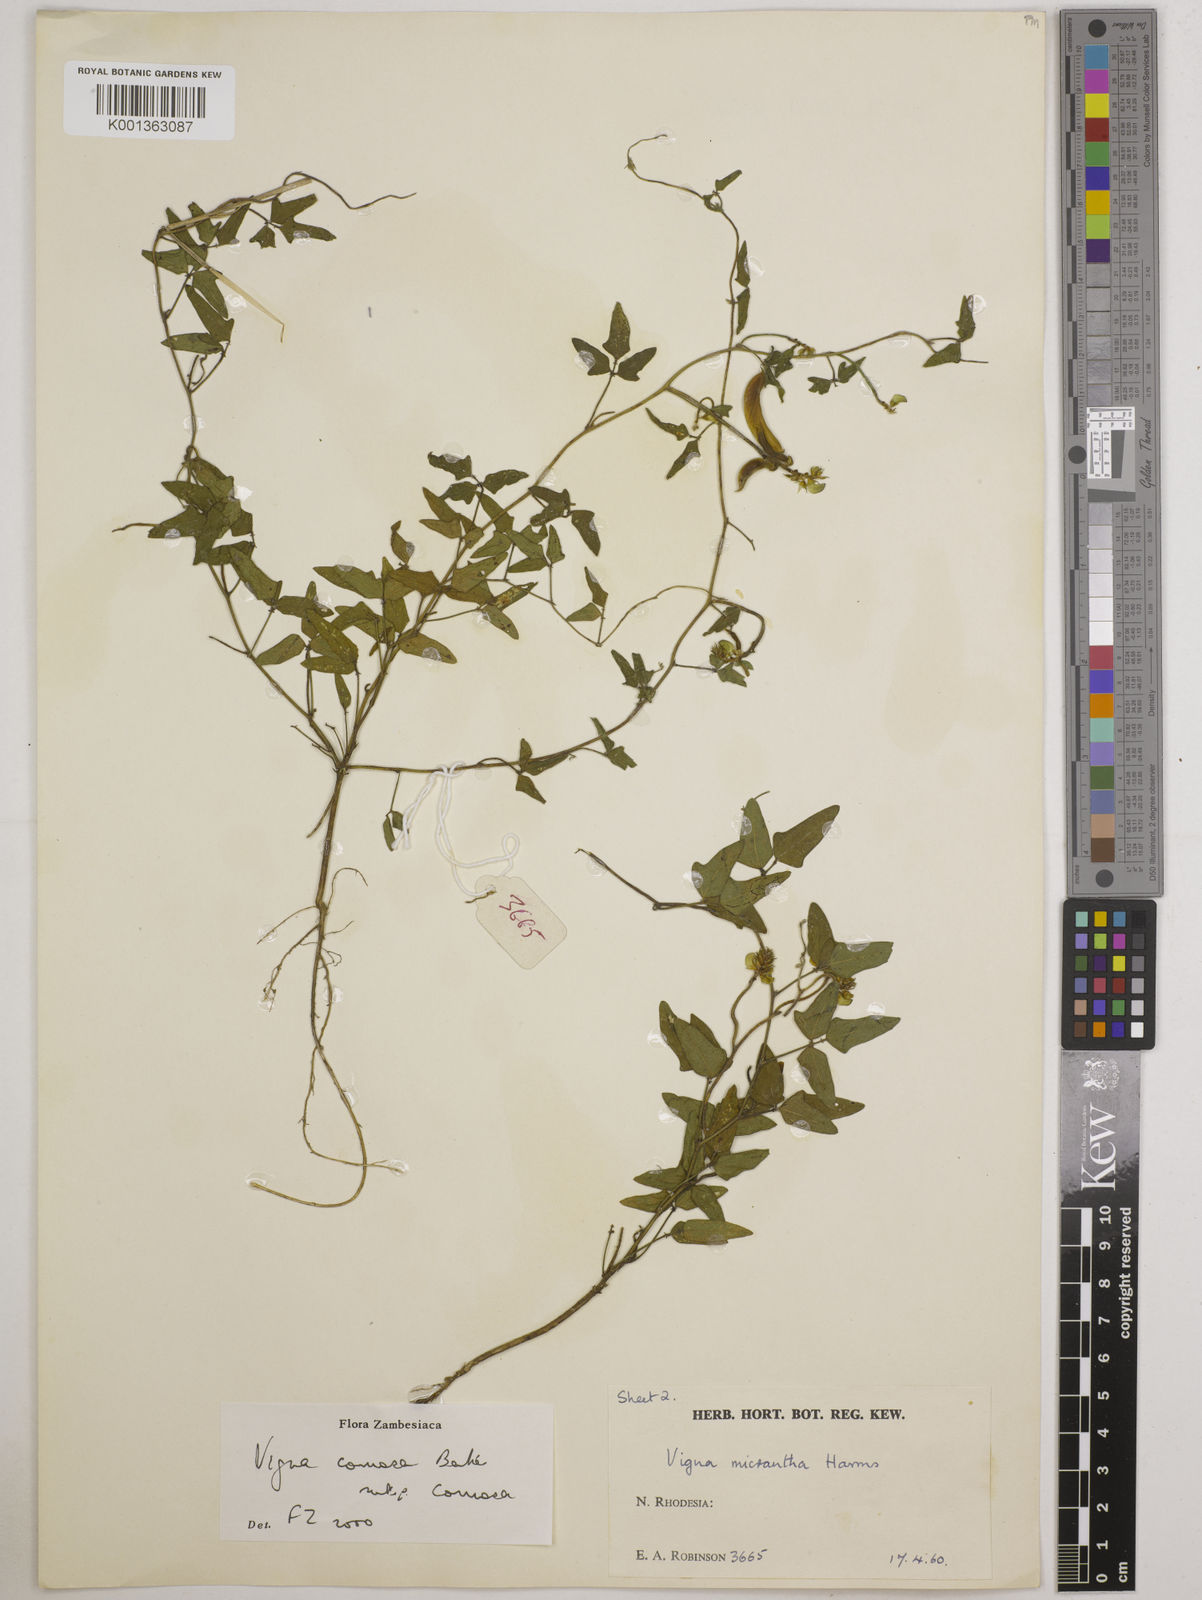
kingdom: Plantae
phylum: Tracheophyta
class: Magnoliopsida
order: Fabales
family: Fabaceae
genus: Vigna
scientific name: Vigna comosa
